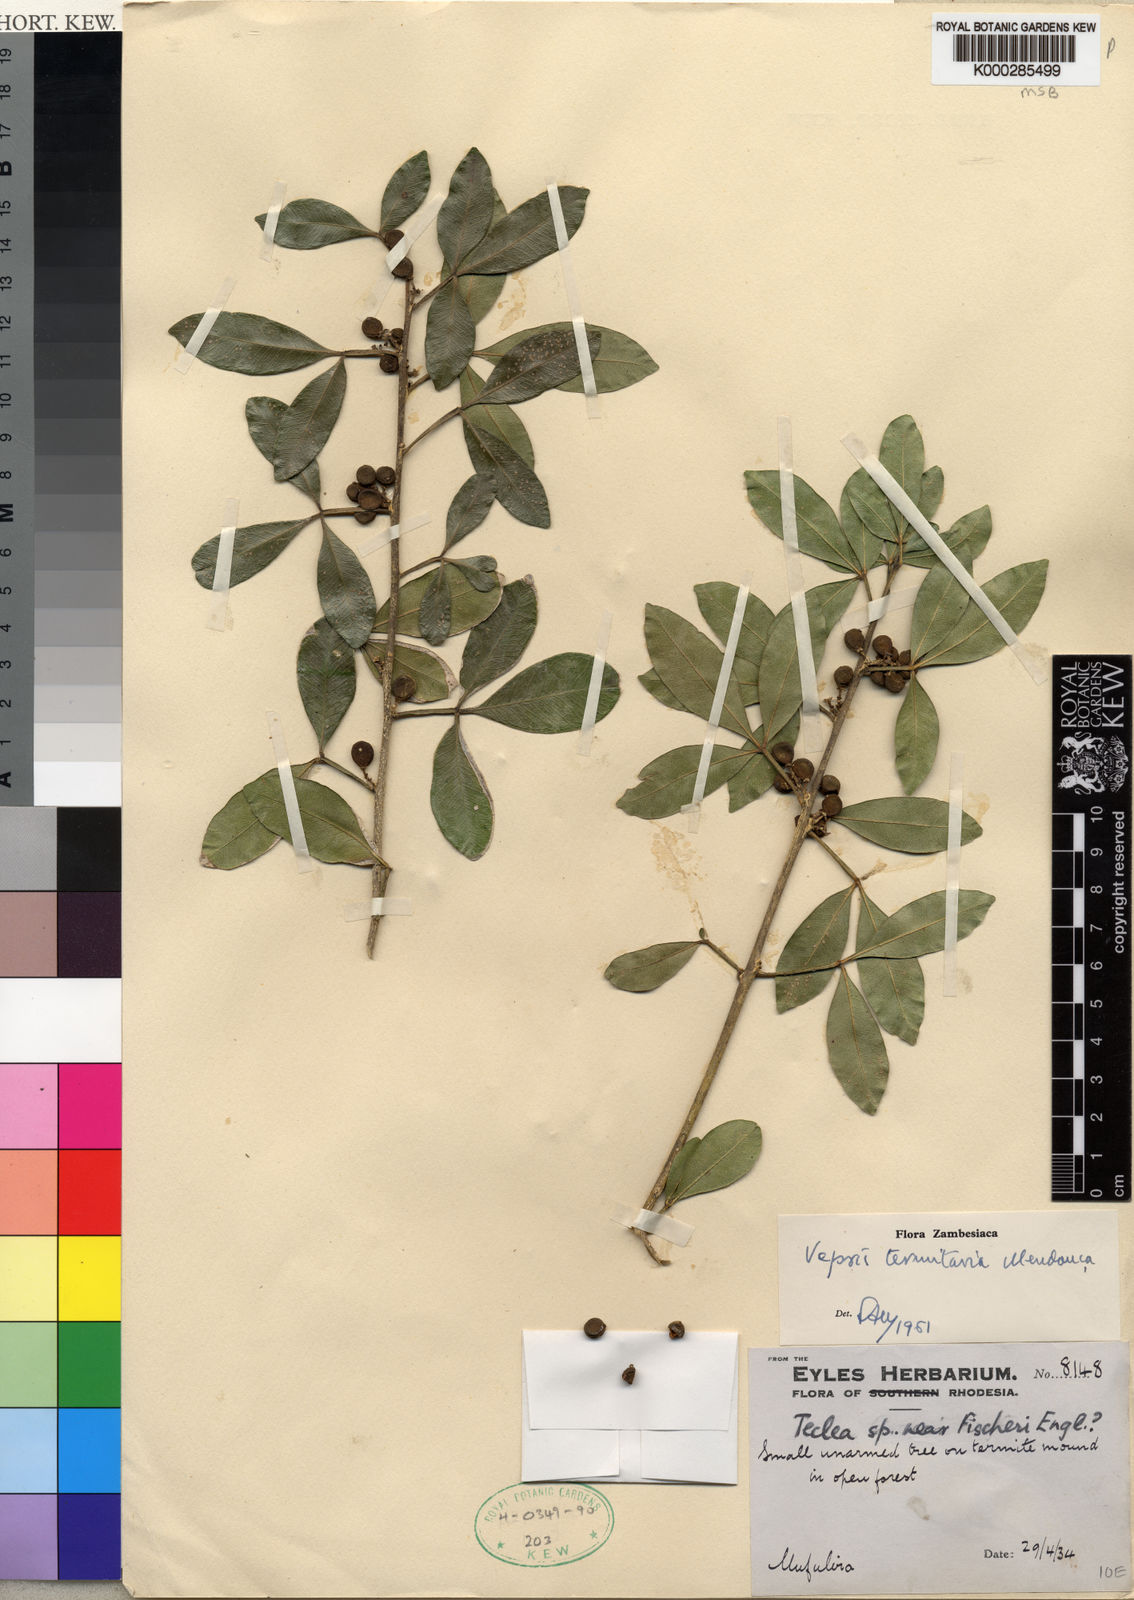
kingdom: Plantae
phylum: Tracheophyta
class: Magnoliopsida
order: Sapindales
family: Rutaceae
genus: Vepris
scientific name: Vepris
